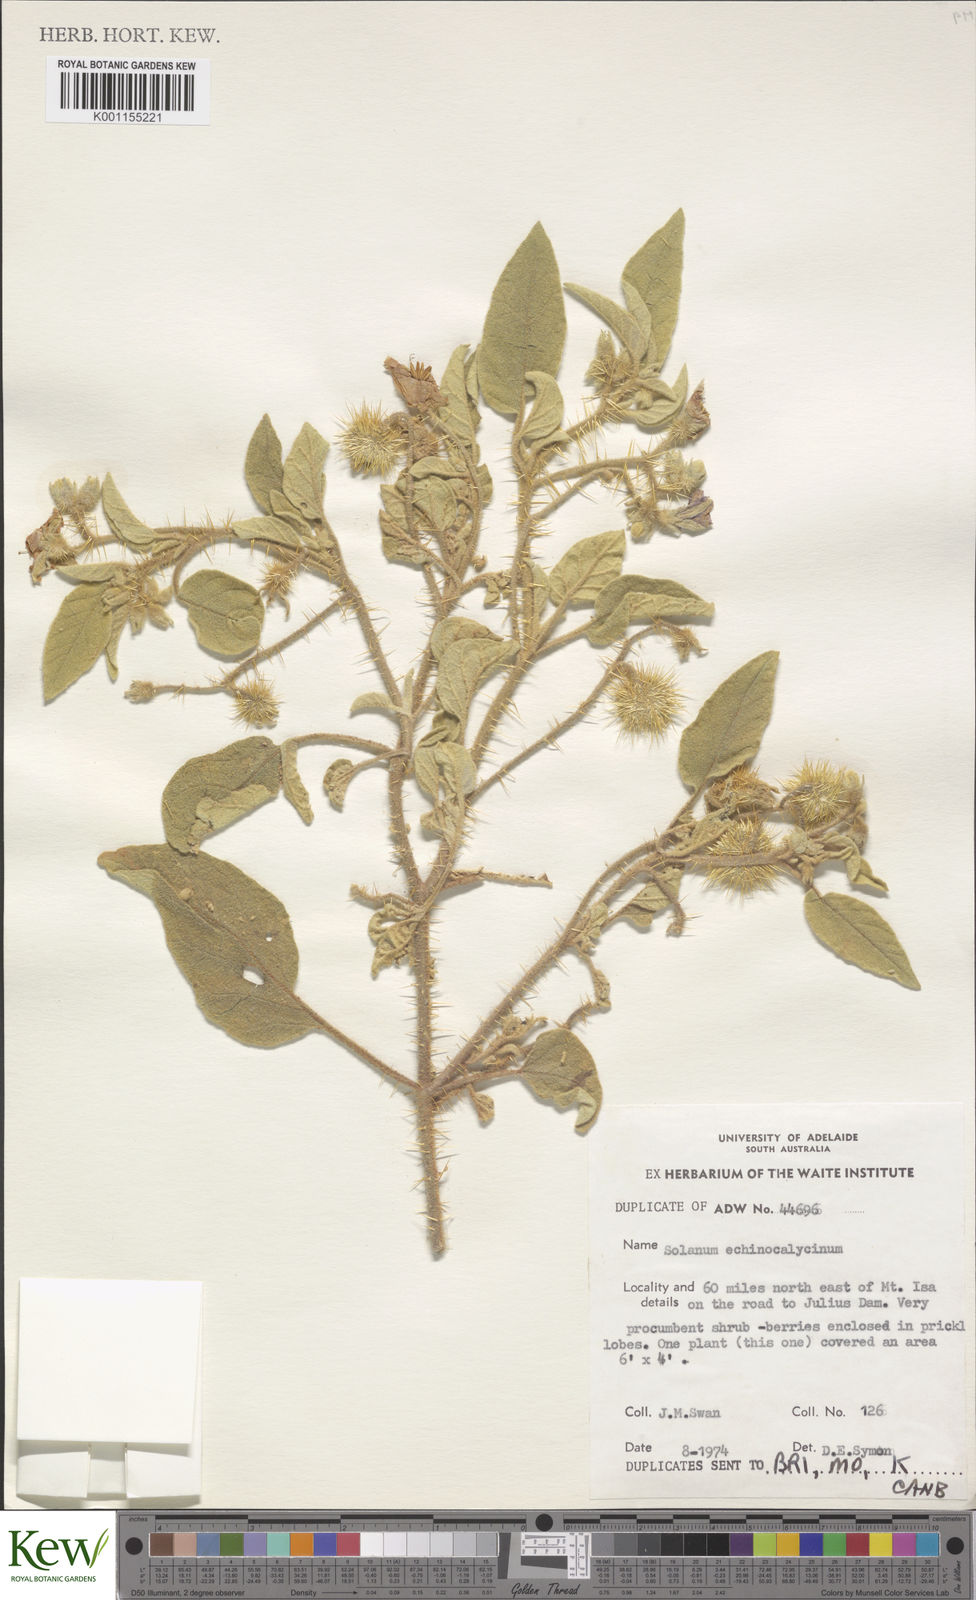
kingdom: Plantae
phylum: Tracheophyta
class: Magnoliopsida
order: Solanales
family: Solanaceae
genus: Solanum
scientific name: Solanum
